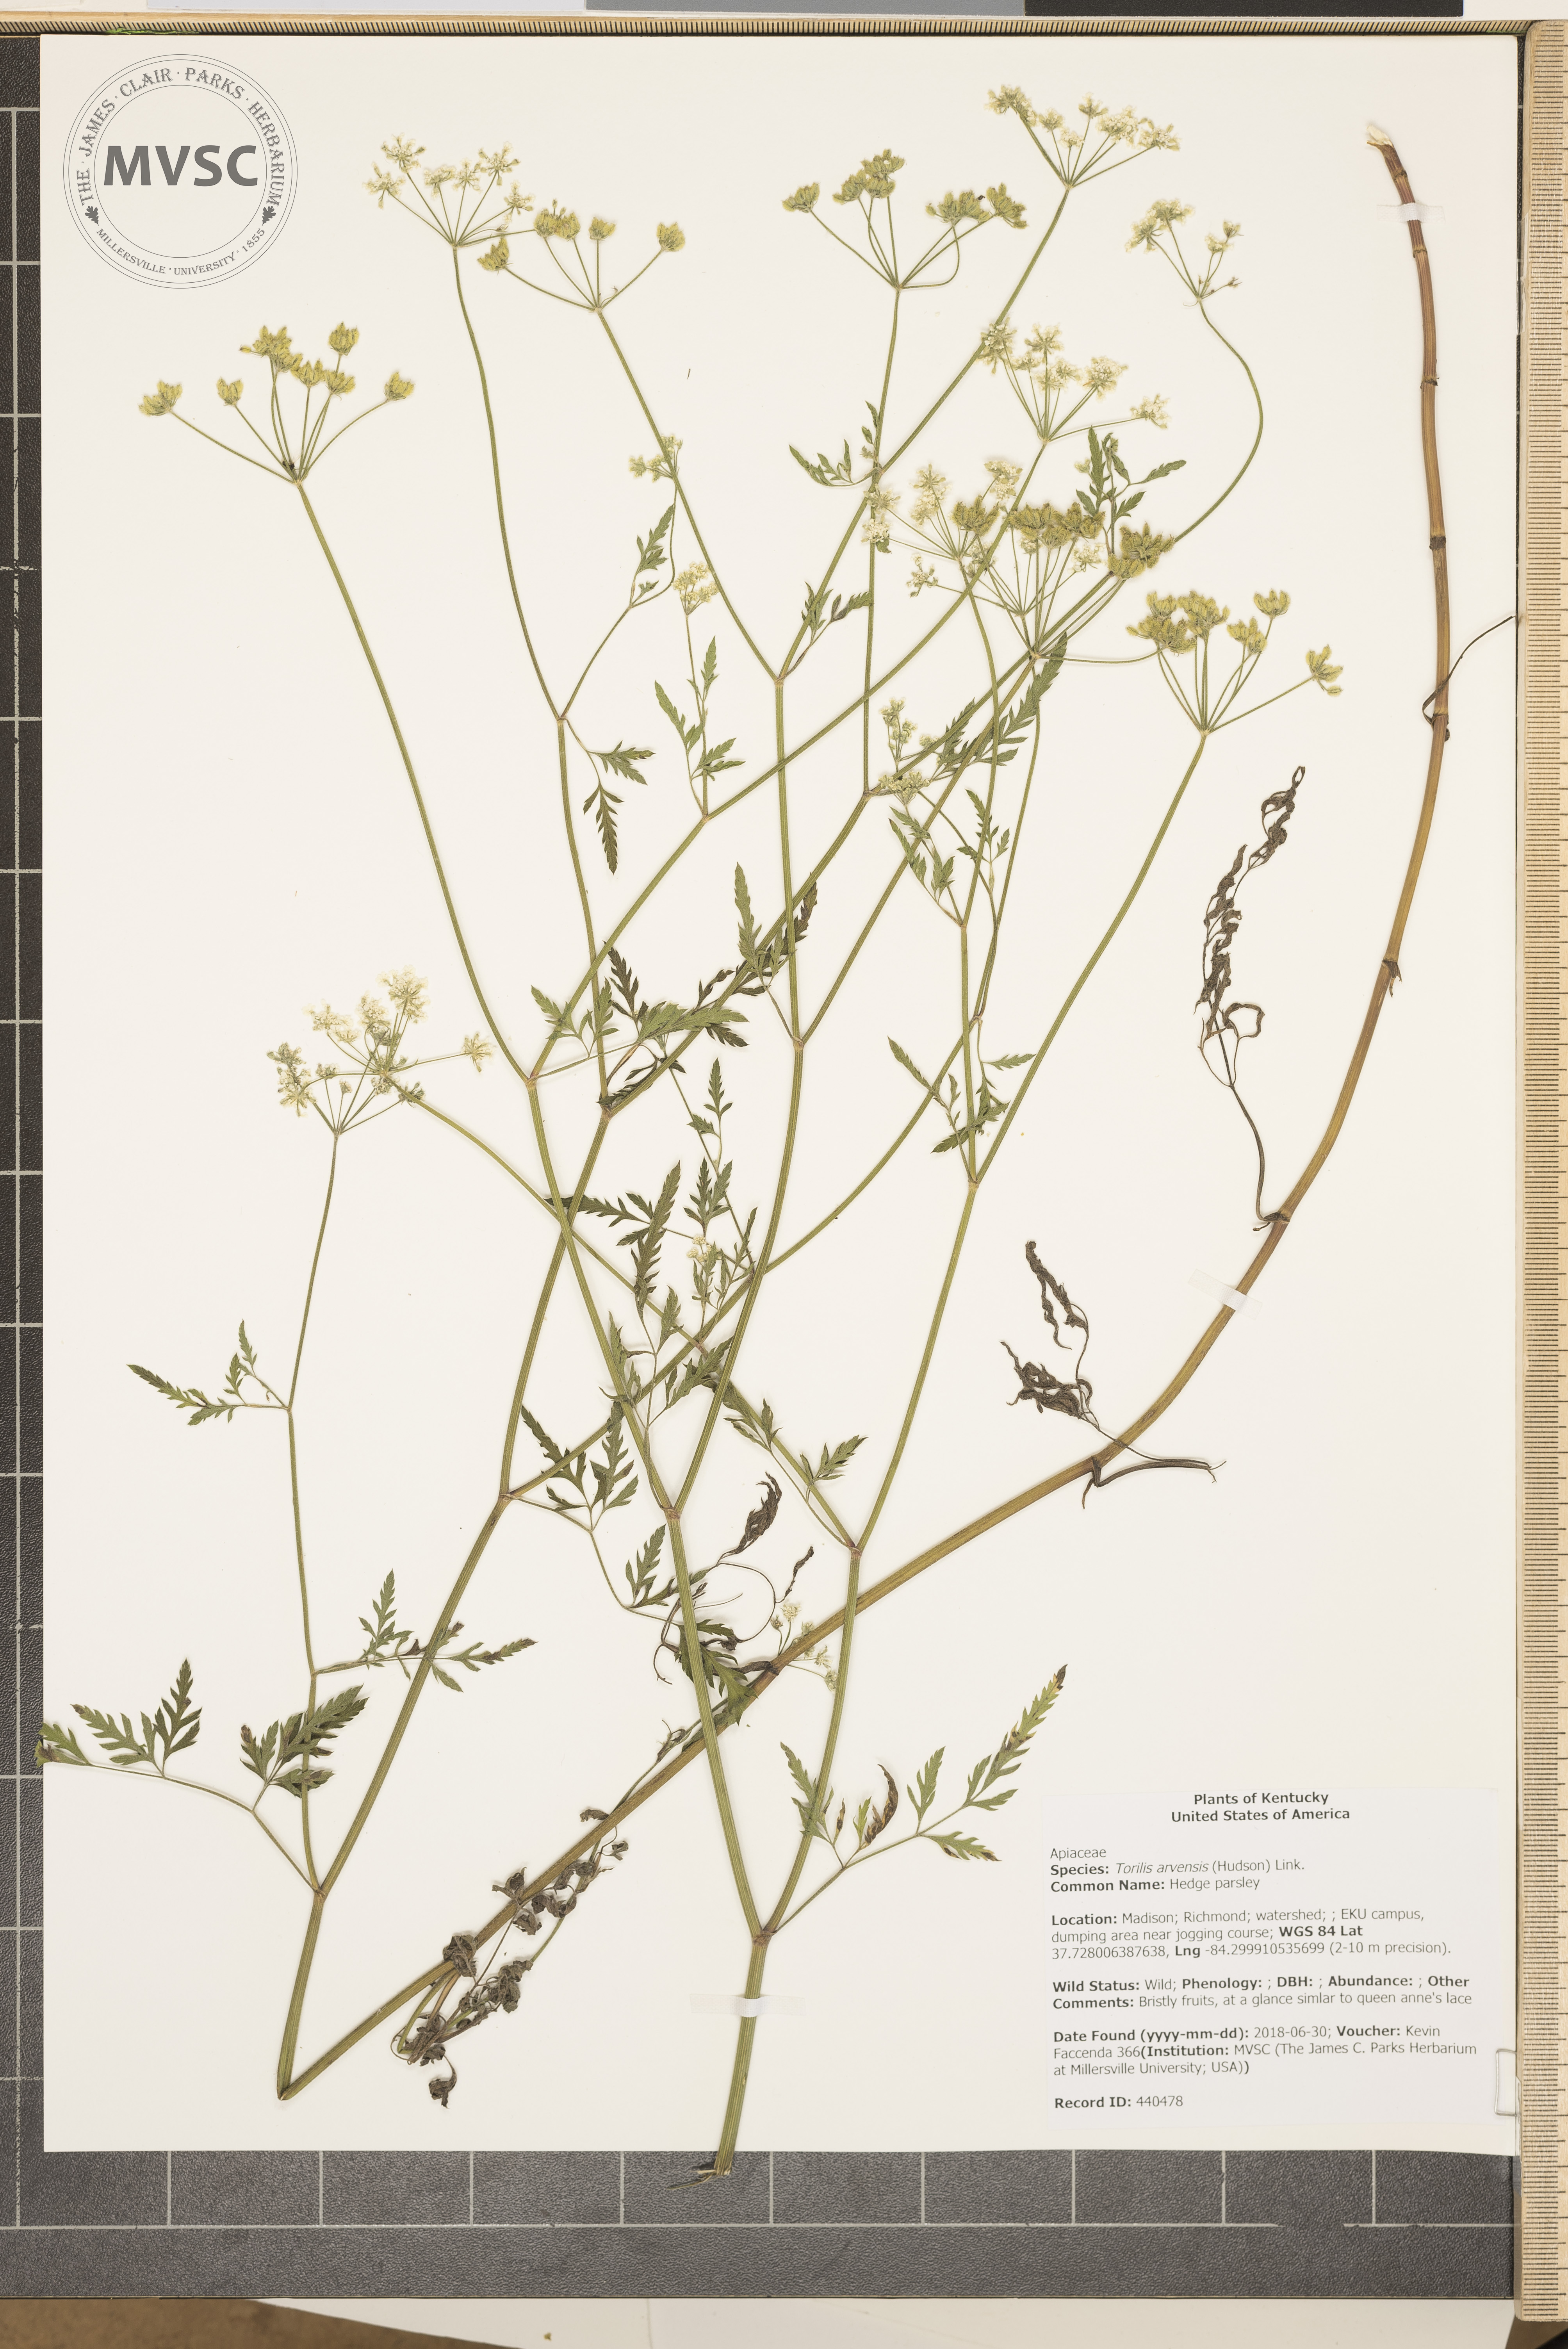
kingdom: Plantae
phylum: Tracheophyta
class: Magnoliopsida
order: Apiales
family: Apiaceae
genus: Torilis
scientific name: Torilis arvensis
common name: Hedge parsley
